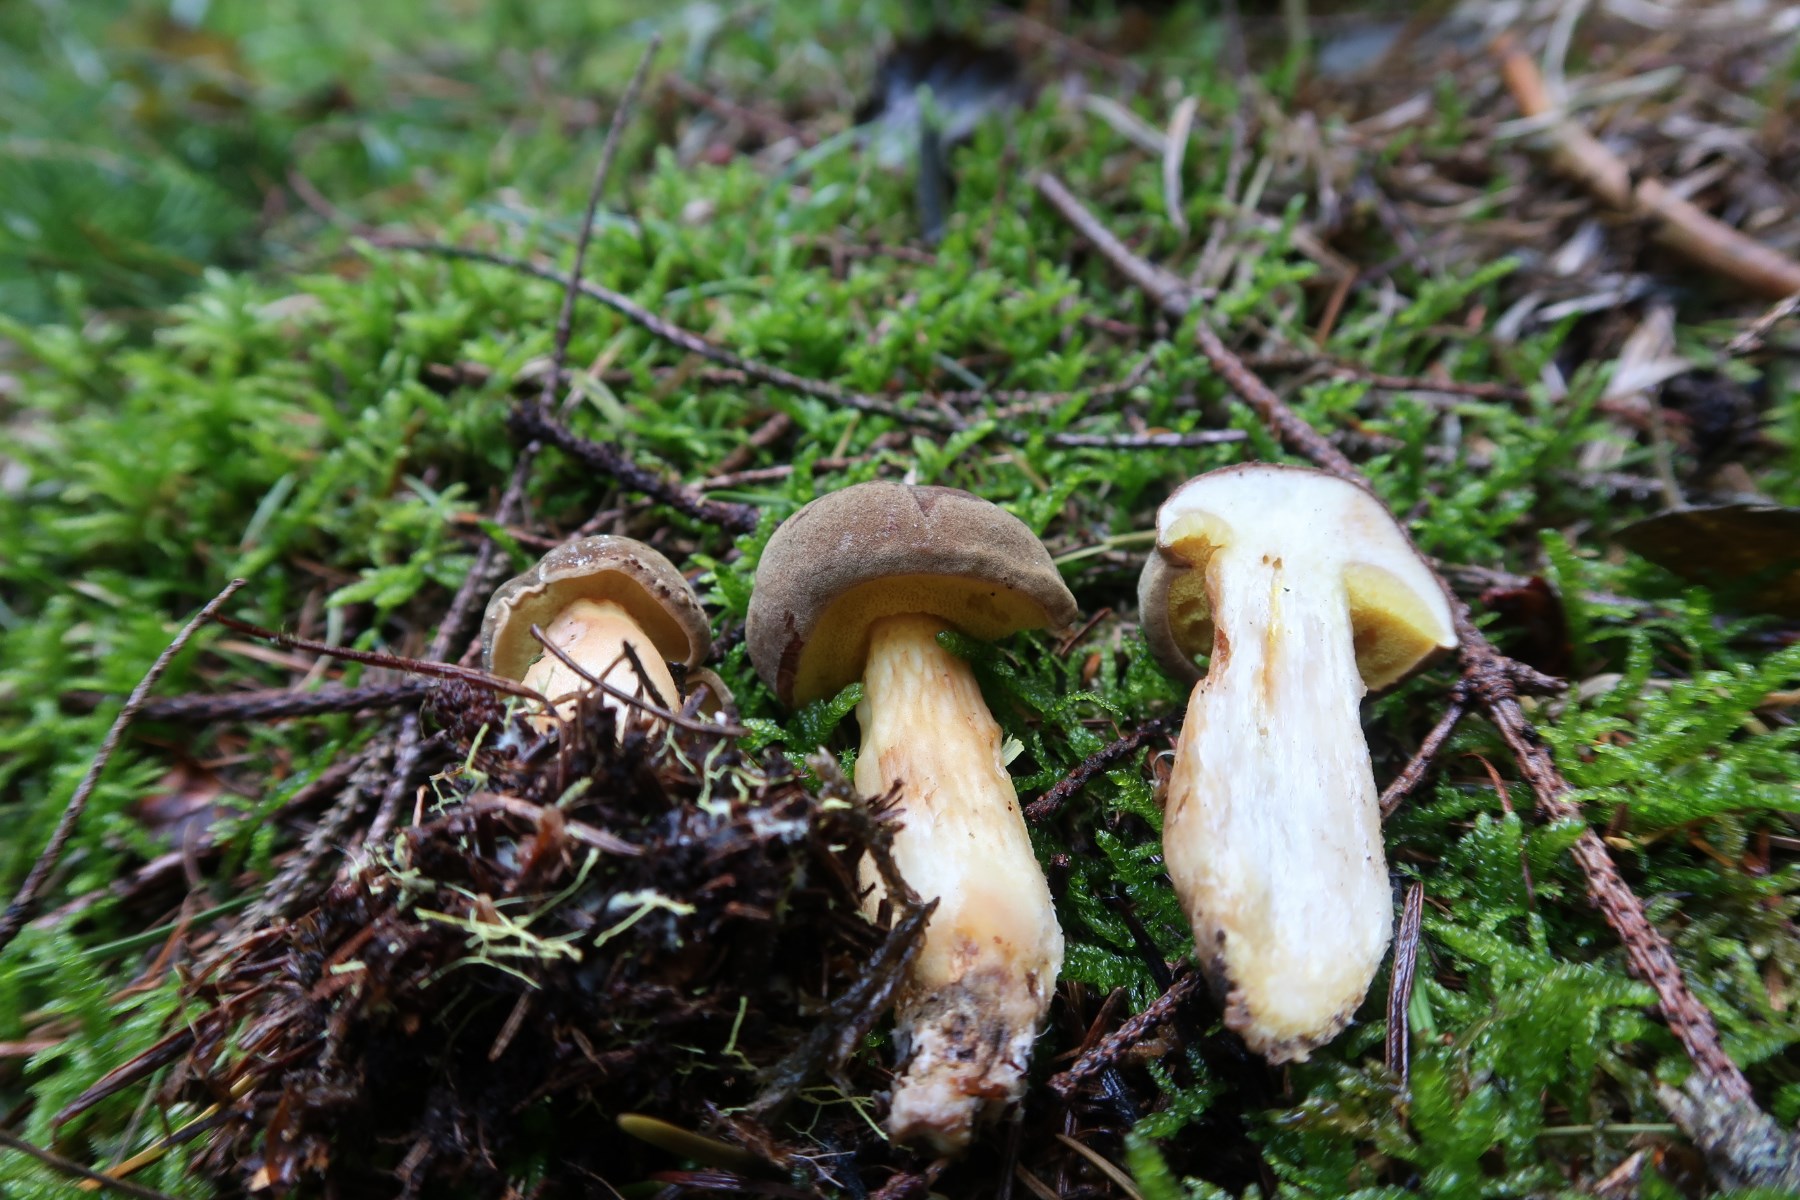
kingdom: Fungi
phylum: Basidiomycota
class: Agaricomycetes
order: Boletales
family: Boletaceae
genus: Xerocomus
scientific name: Xerocomus ferrugineus
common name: vaskeskinds-rørhat
